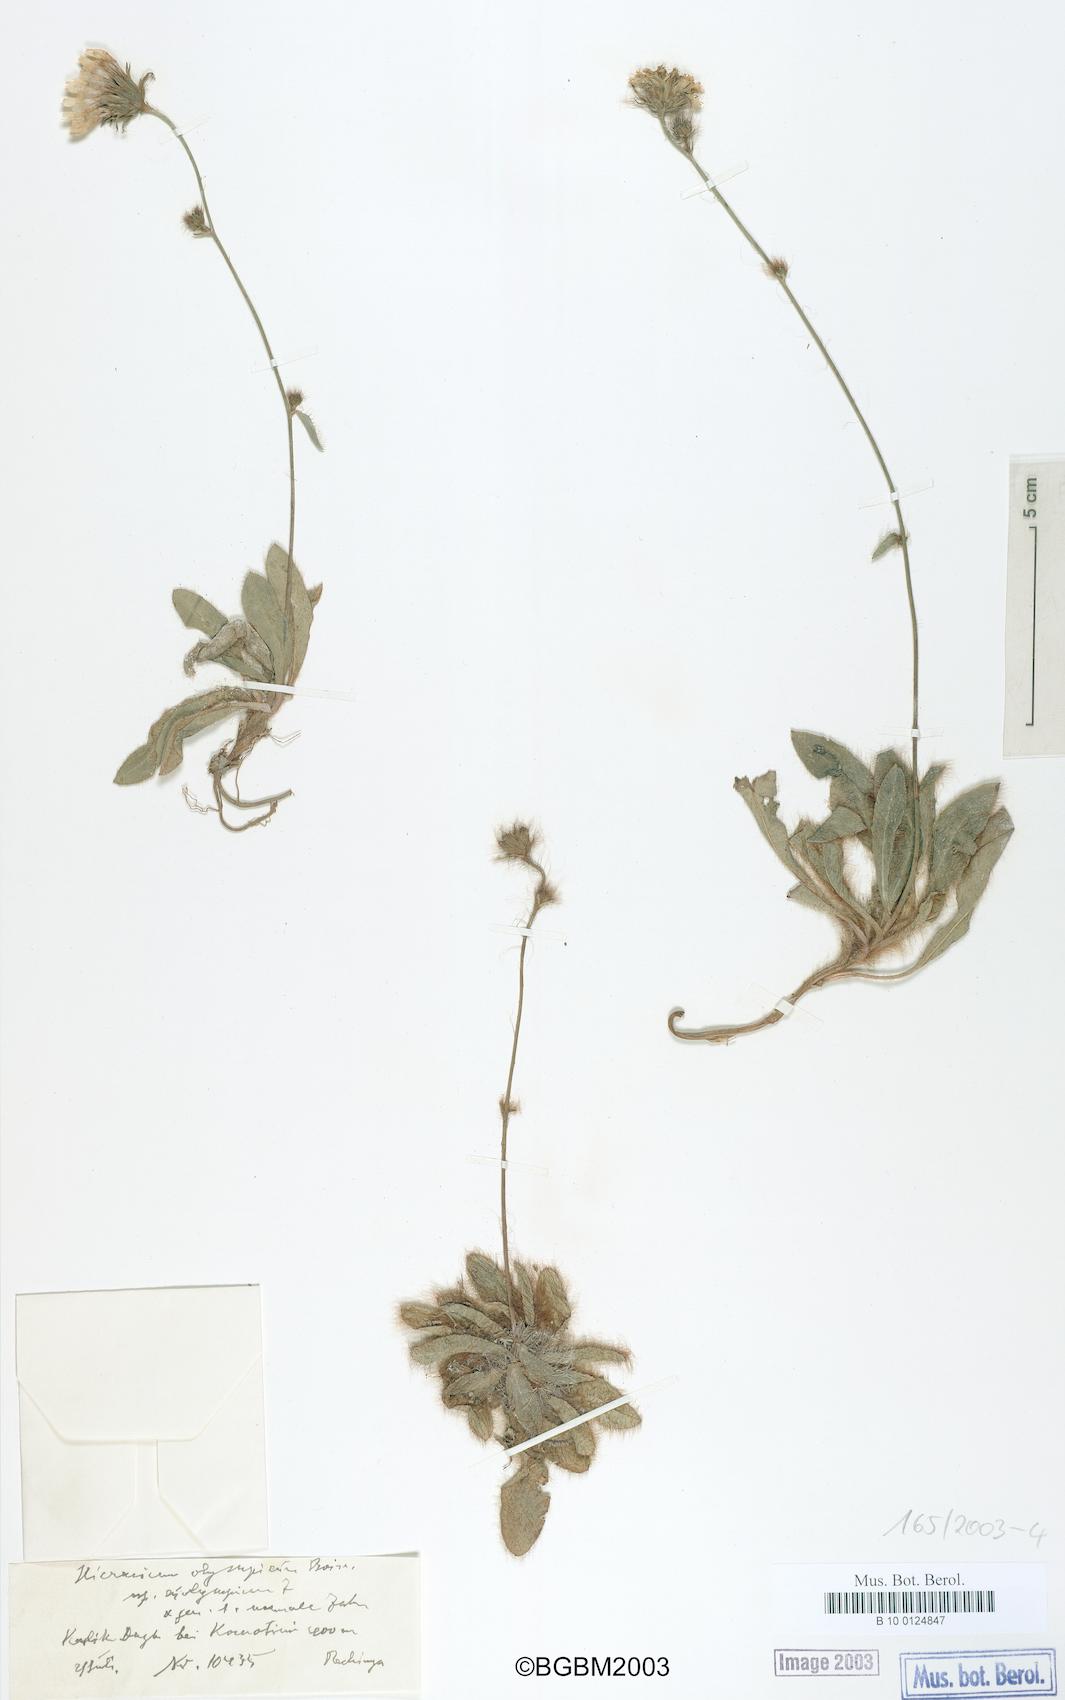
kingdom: Plantae
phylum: Tracheophyta
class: Magnoliopsida
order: Asterales
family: Asteraceae
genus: Hieracium
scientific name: Hieracium olympicum
